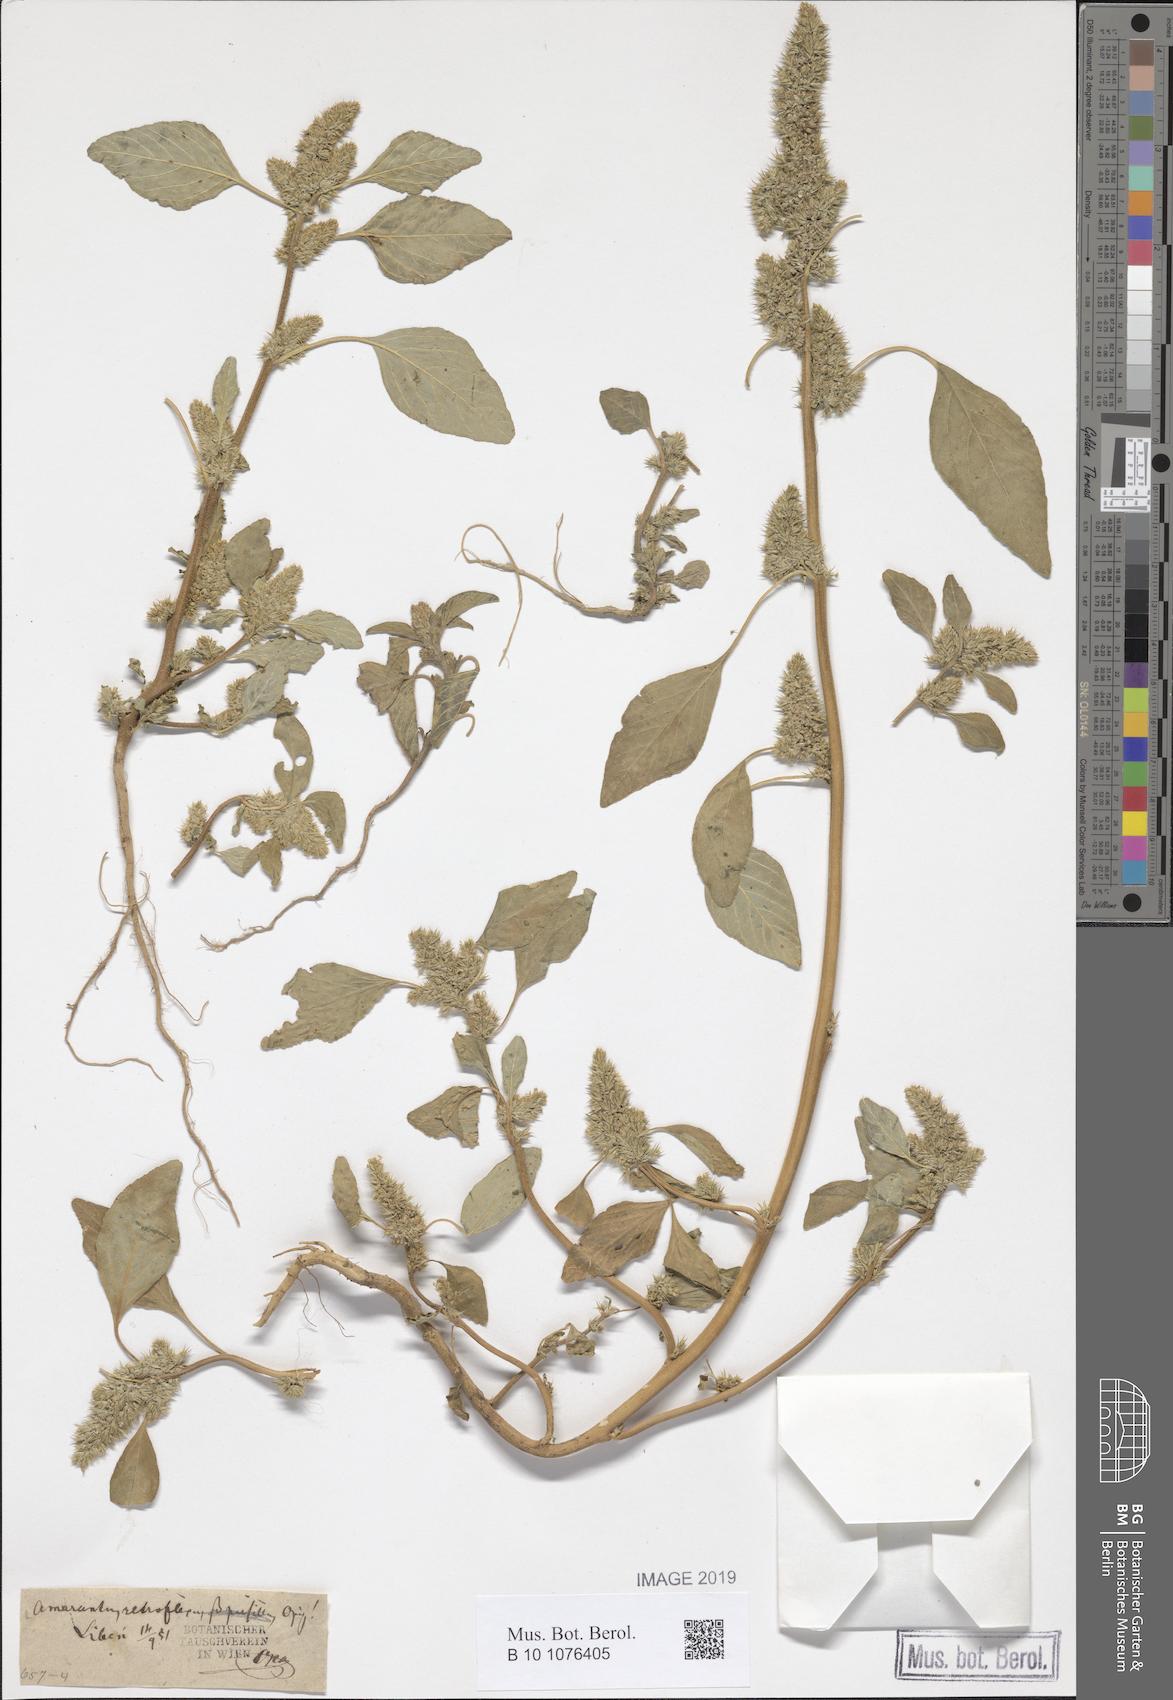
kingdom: Plantae
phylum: Tracheophyta
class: Magnoliopsida
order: Caryophyllales
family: Amaranthaceae
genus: Amaranthus
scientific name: Amaranthus retroflexus
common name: Redroot amaranth
